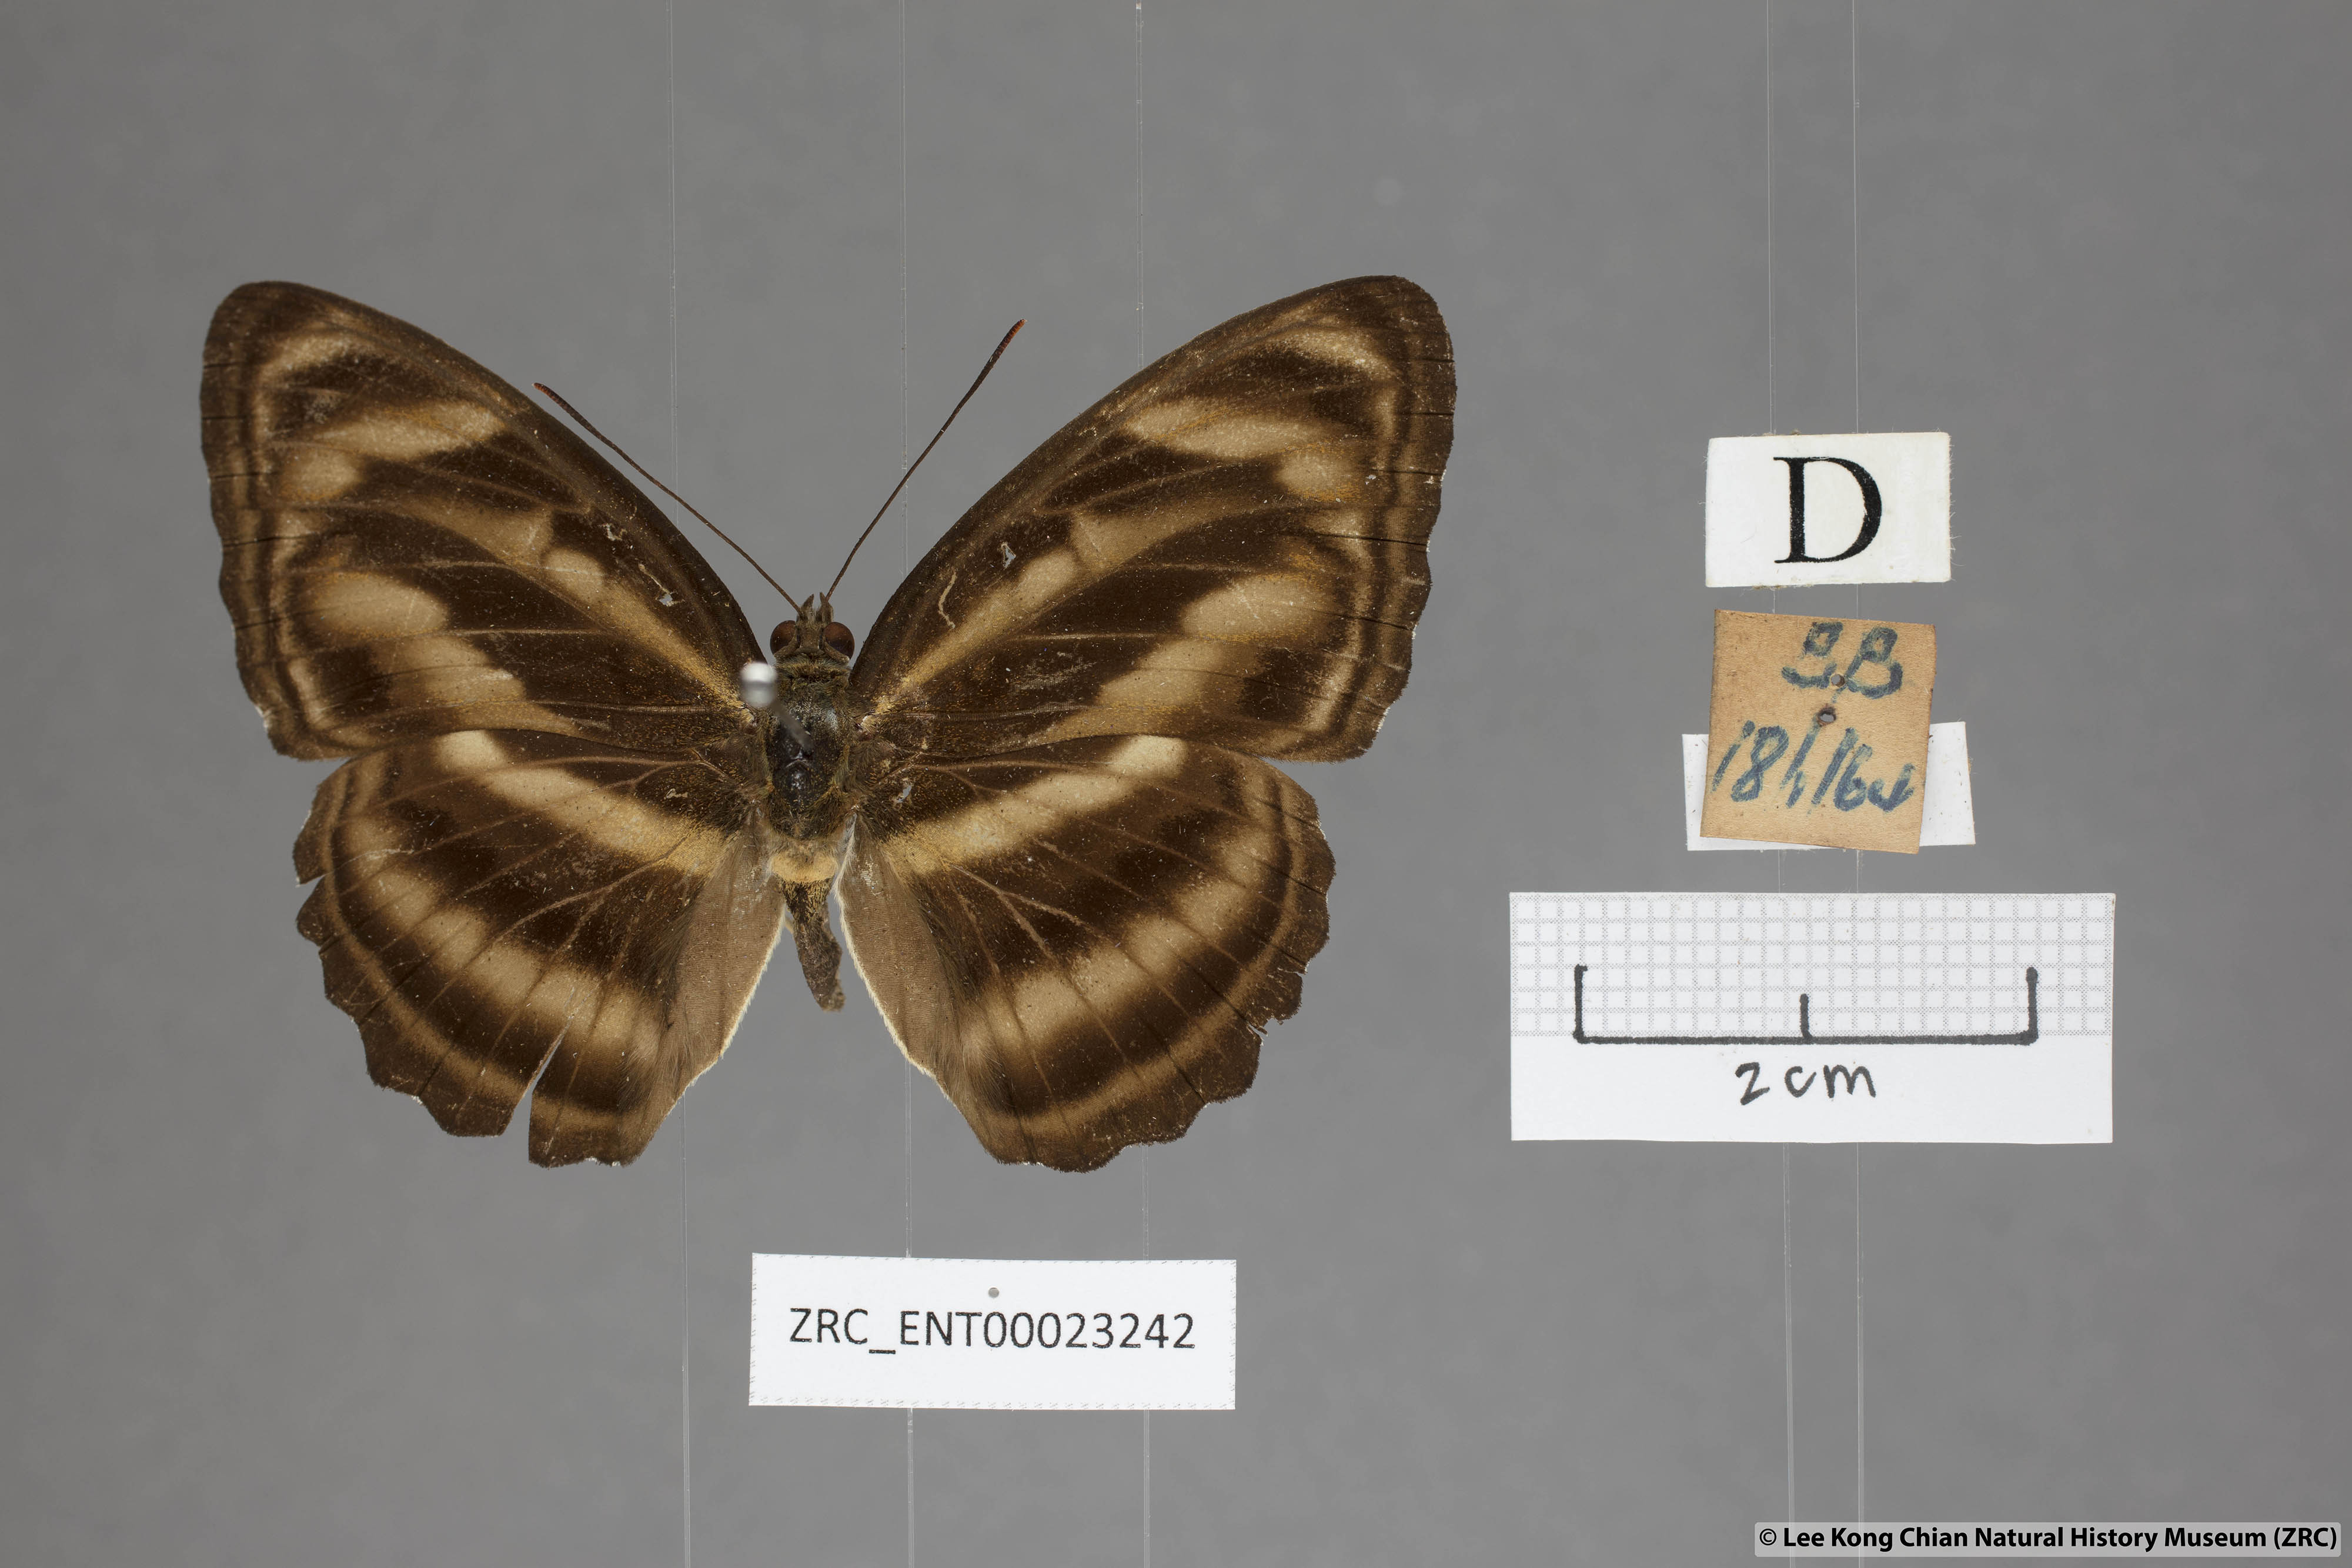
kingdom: Animalia
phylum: Arthropoda
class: Insecta
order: Lepidoptera
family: Nymphalidae
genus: Parathyma
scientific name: Parathyma nefte
